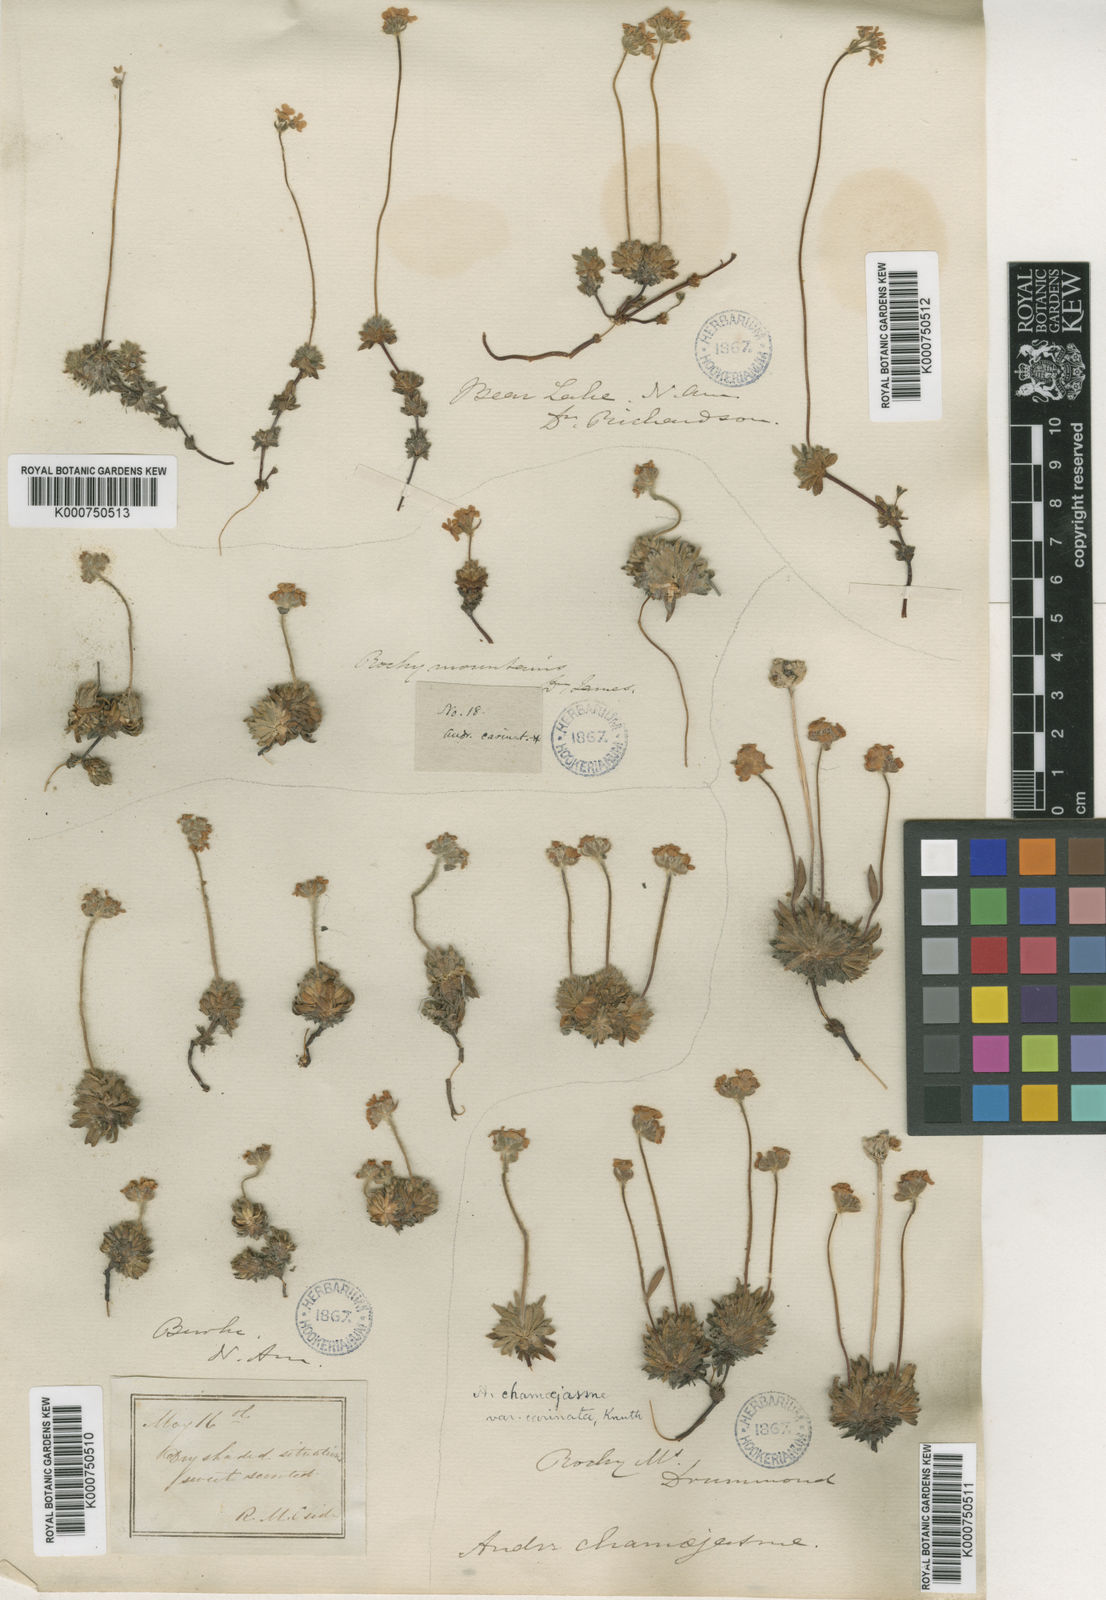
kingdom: Plantae
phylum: Tracheophyta
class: Magnoliopsida
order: Ericales
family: Primulaceae
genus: Androsace
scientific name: Androsace
